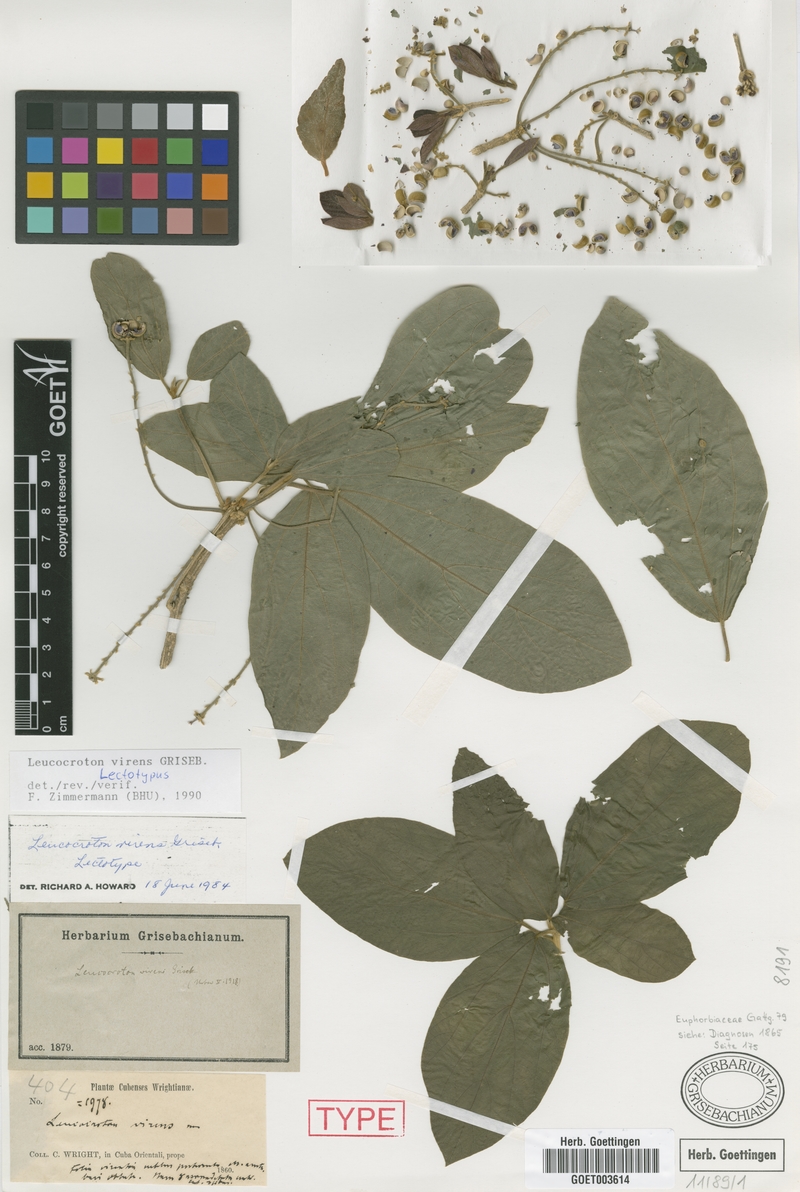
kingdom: Plantae
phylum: Tracheophyta
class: Magnoliopsida
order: Malpighiales
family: Euphorbiaceae
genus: Leucocroton
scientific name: Leucocroton virens
